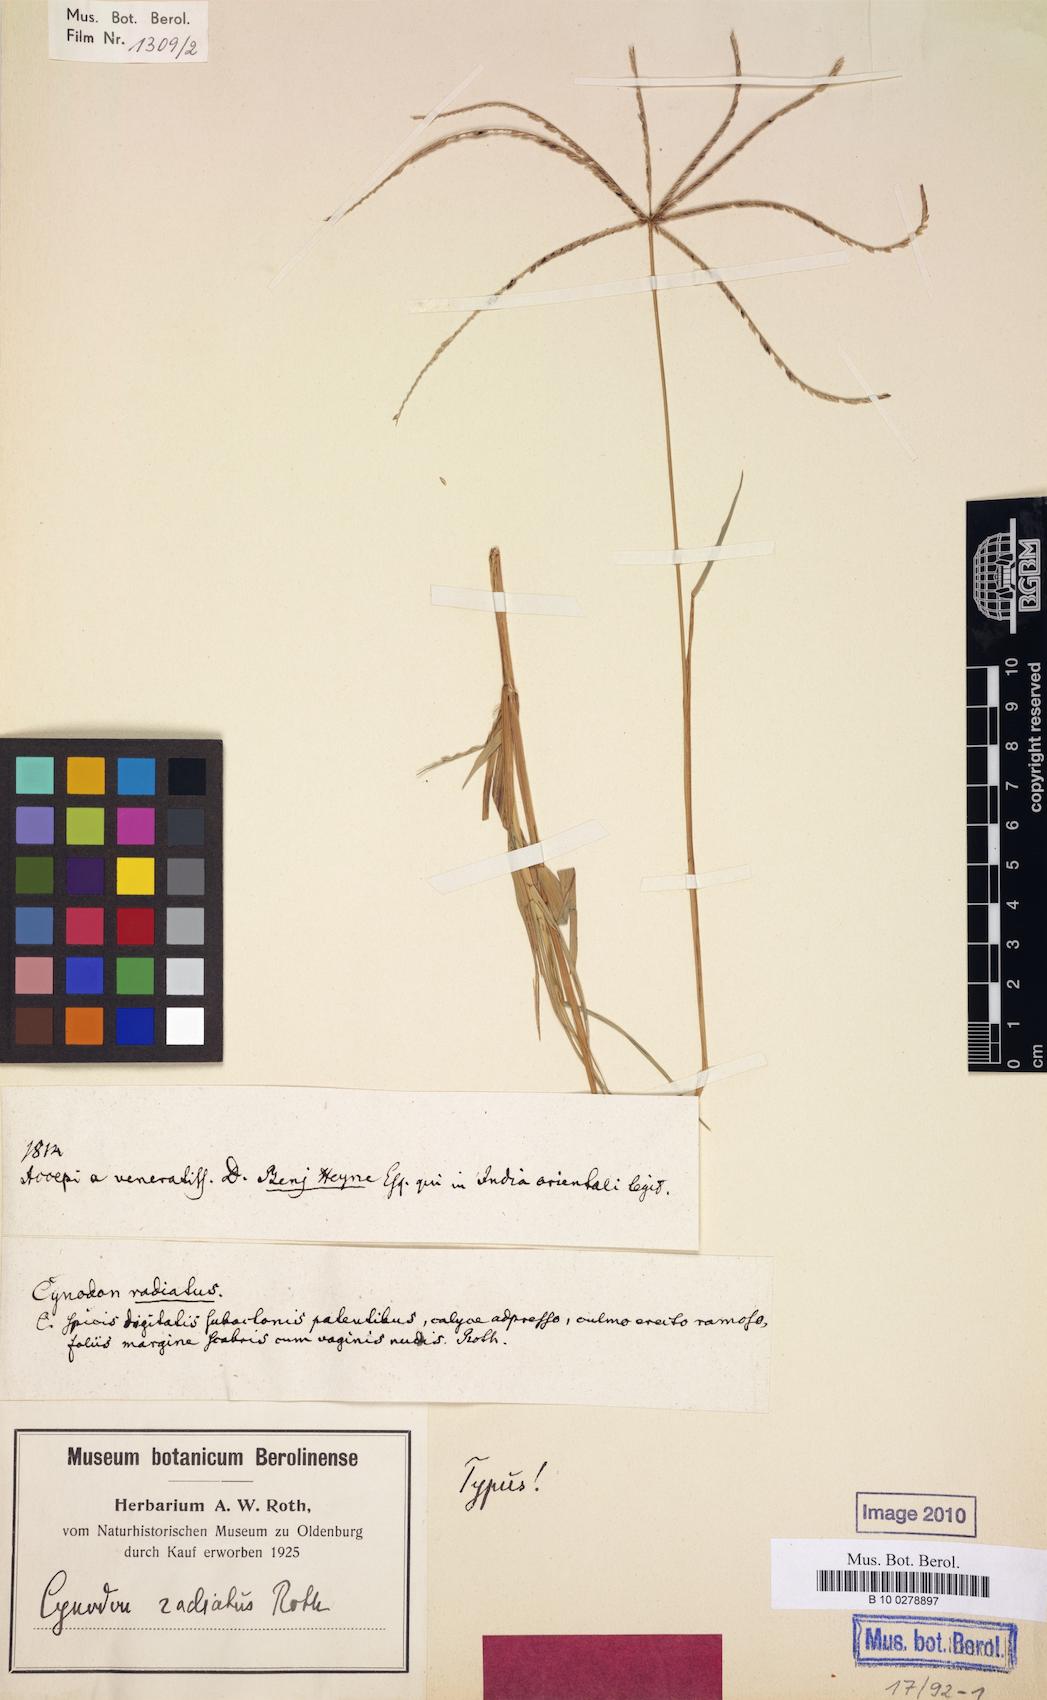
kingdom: Plantae
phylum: Tracheophyta
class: Liliopsida
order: Poales
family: Poaceae
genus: Cynodon
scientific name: Cynodon radiatus
